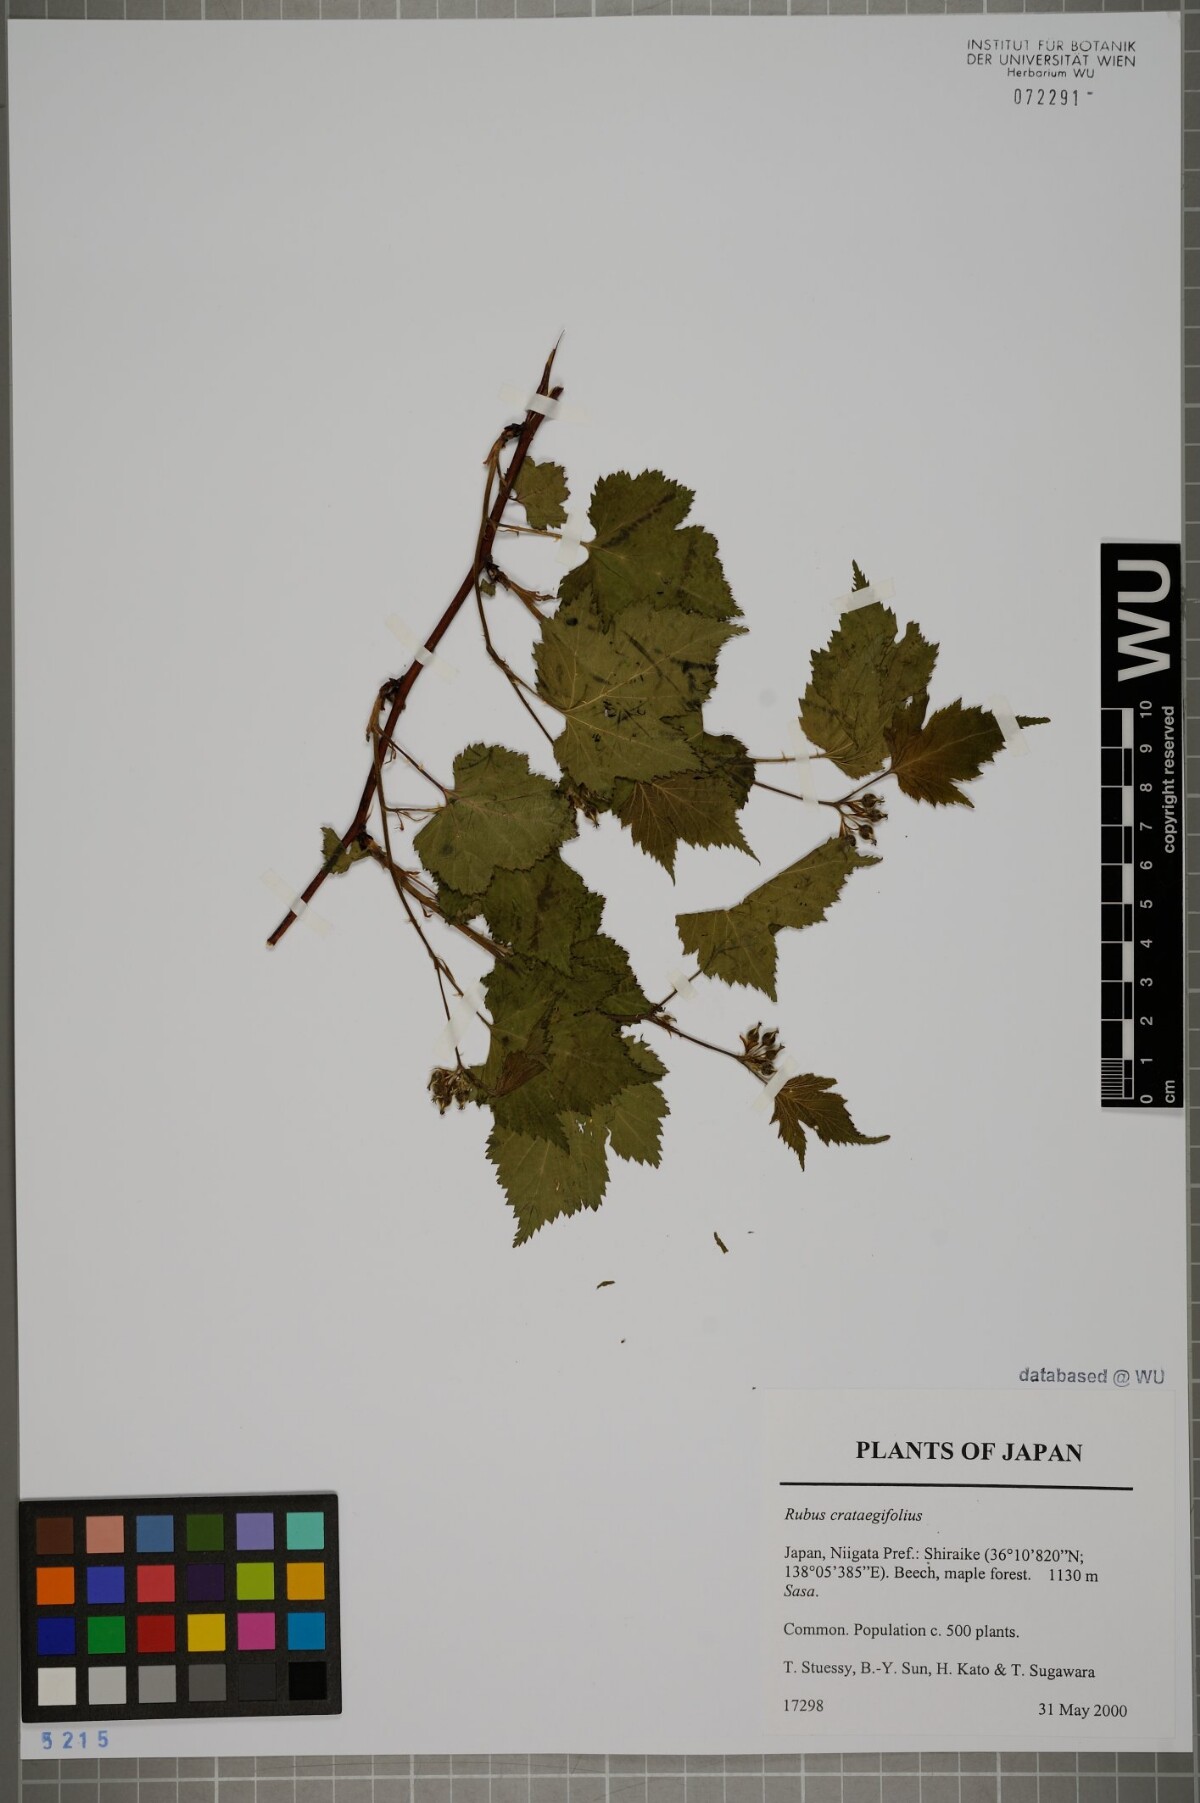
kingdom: Plantae
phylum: Tracheophyta
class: Magnoliopsida
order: Rosales
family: Rosaceae
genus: Rubus
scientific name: Rubus crataegifolius
